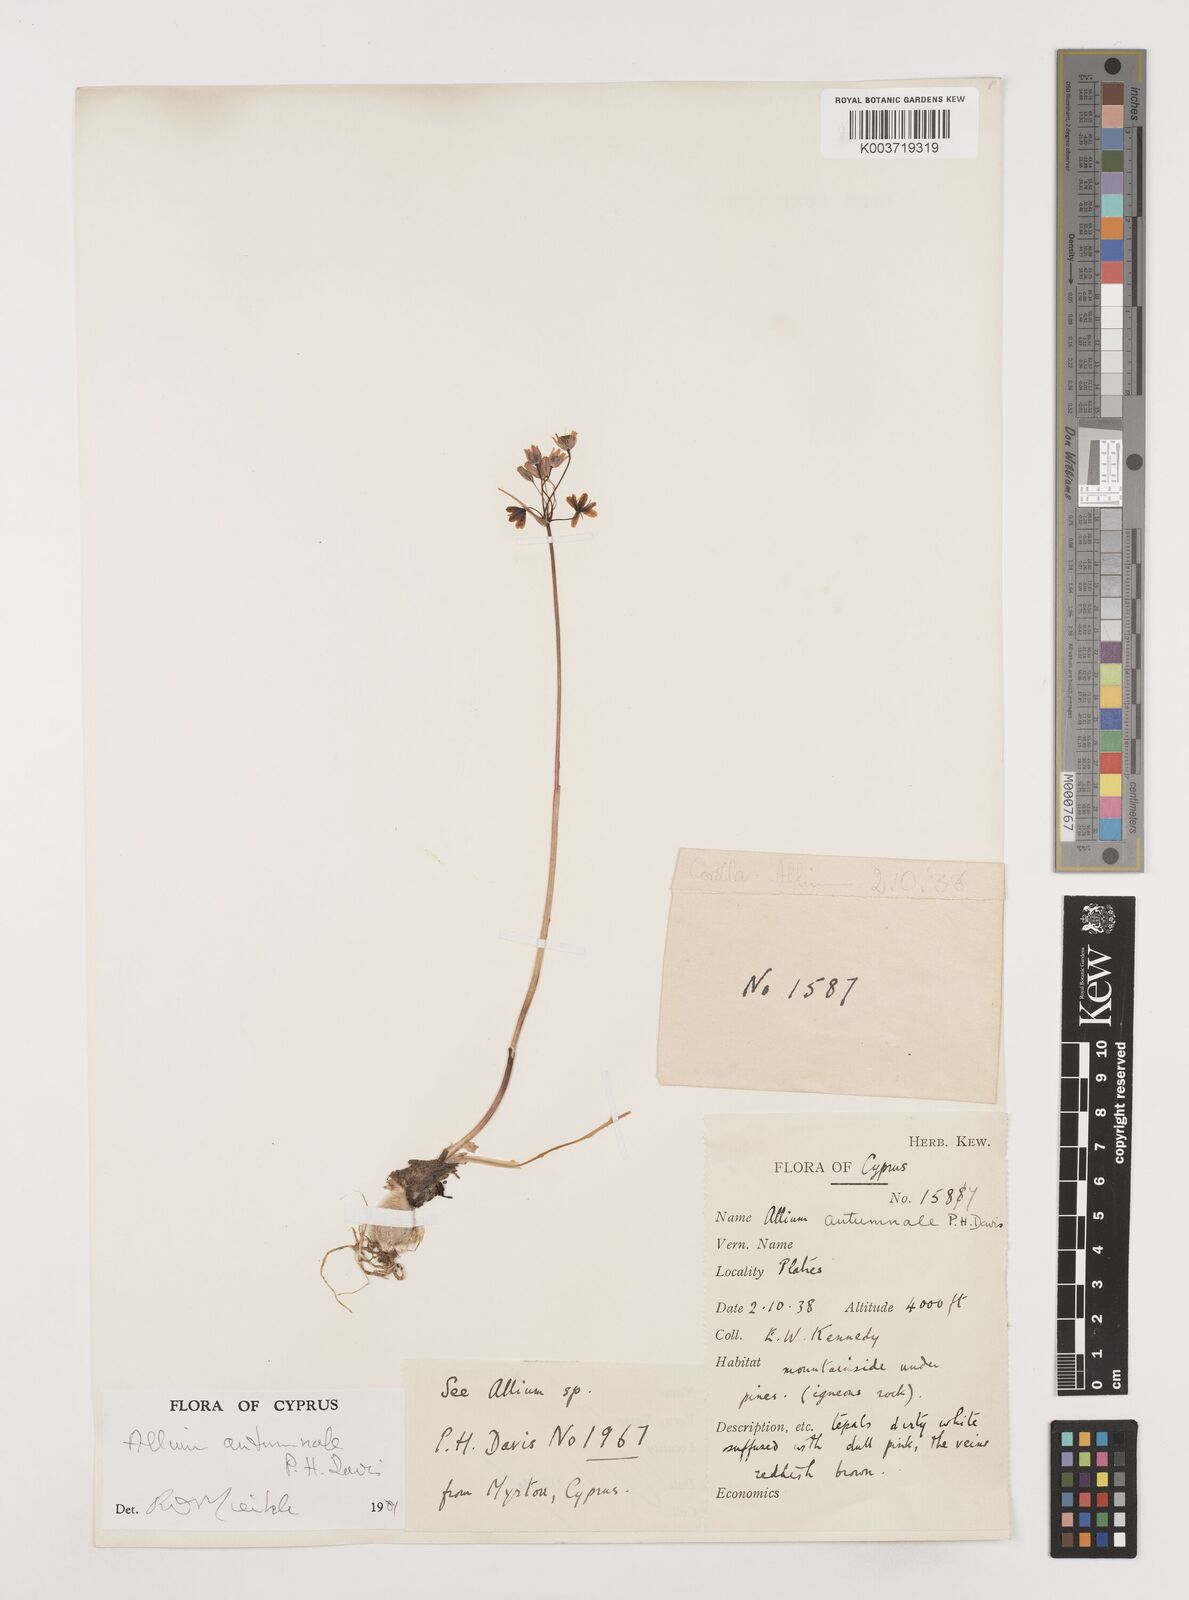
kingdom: Plantae
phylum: Tracheophyta
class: Liliopsida
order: Asparagales
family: Amaryllidaceae
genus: Allium
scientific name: Allium autumnale
